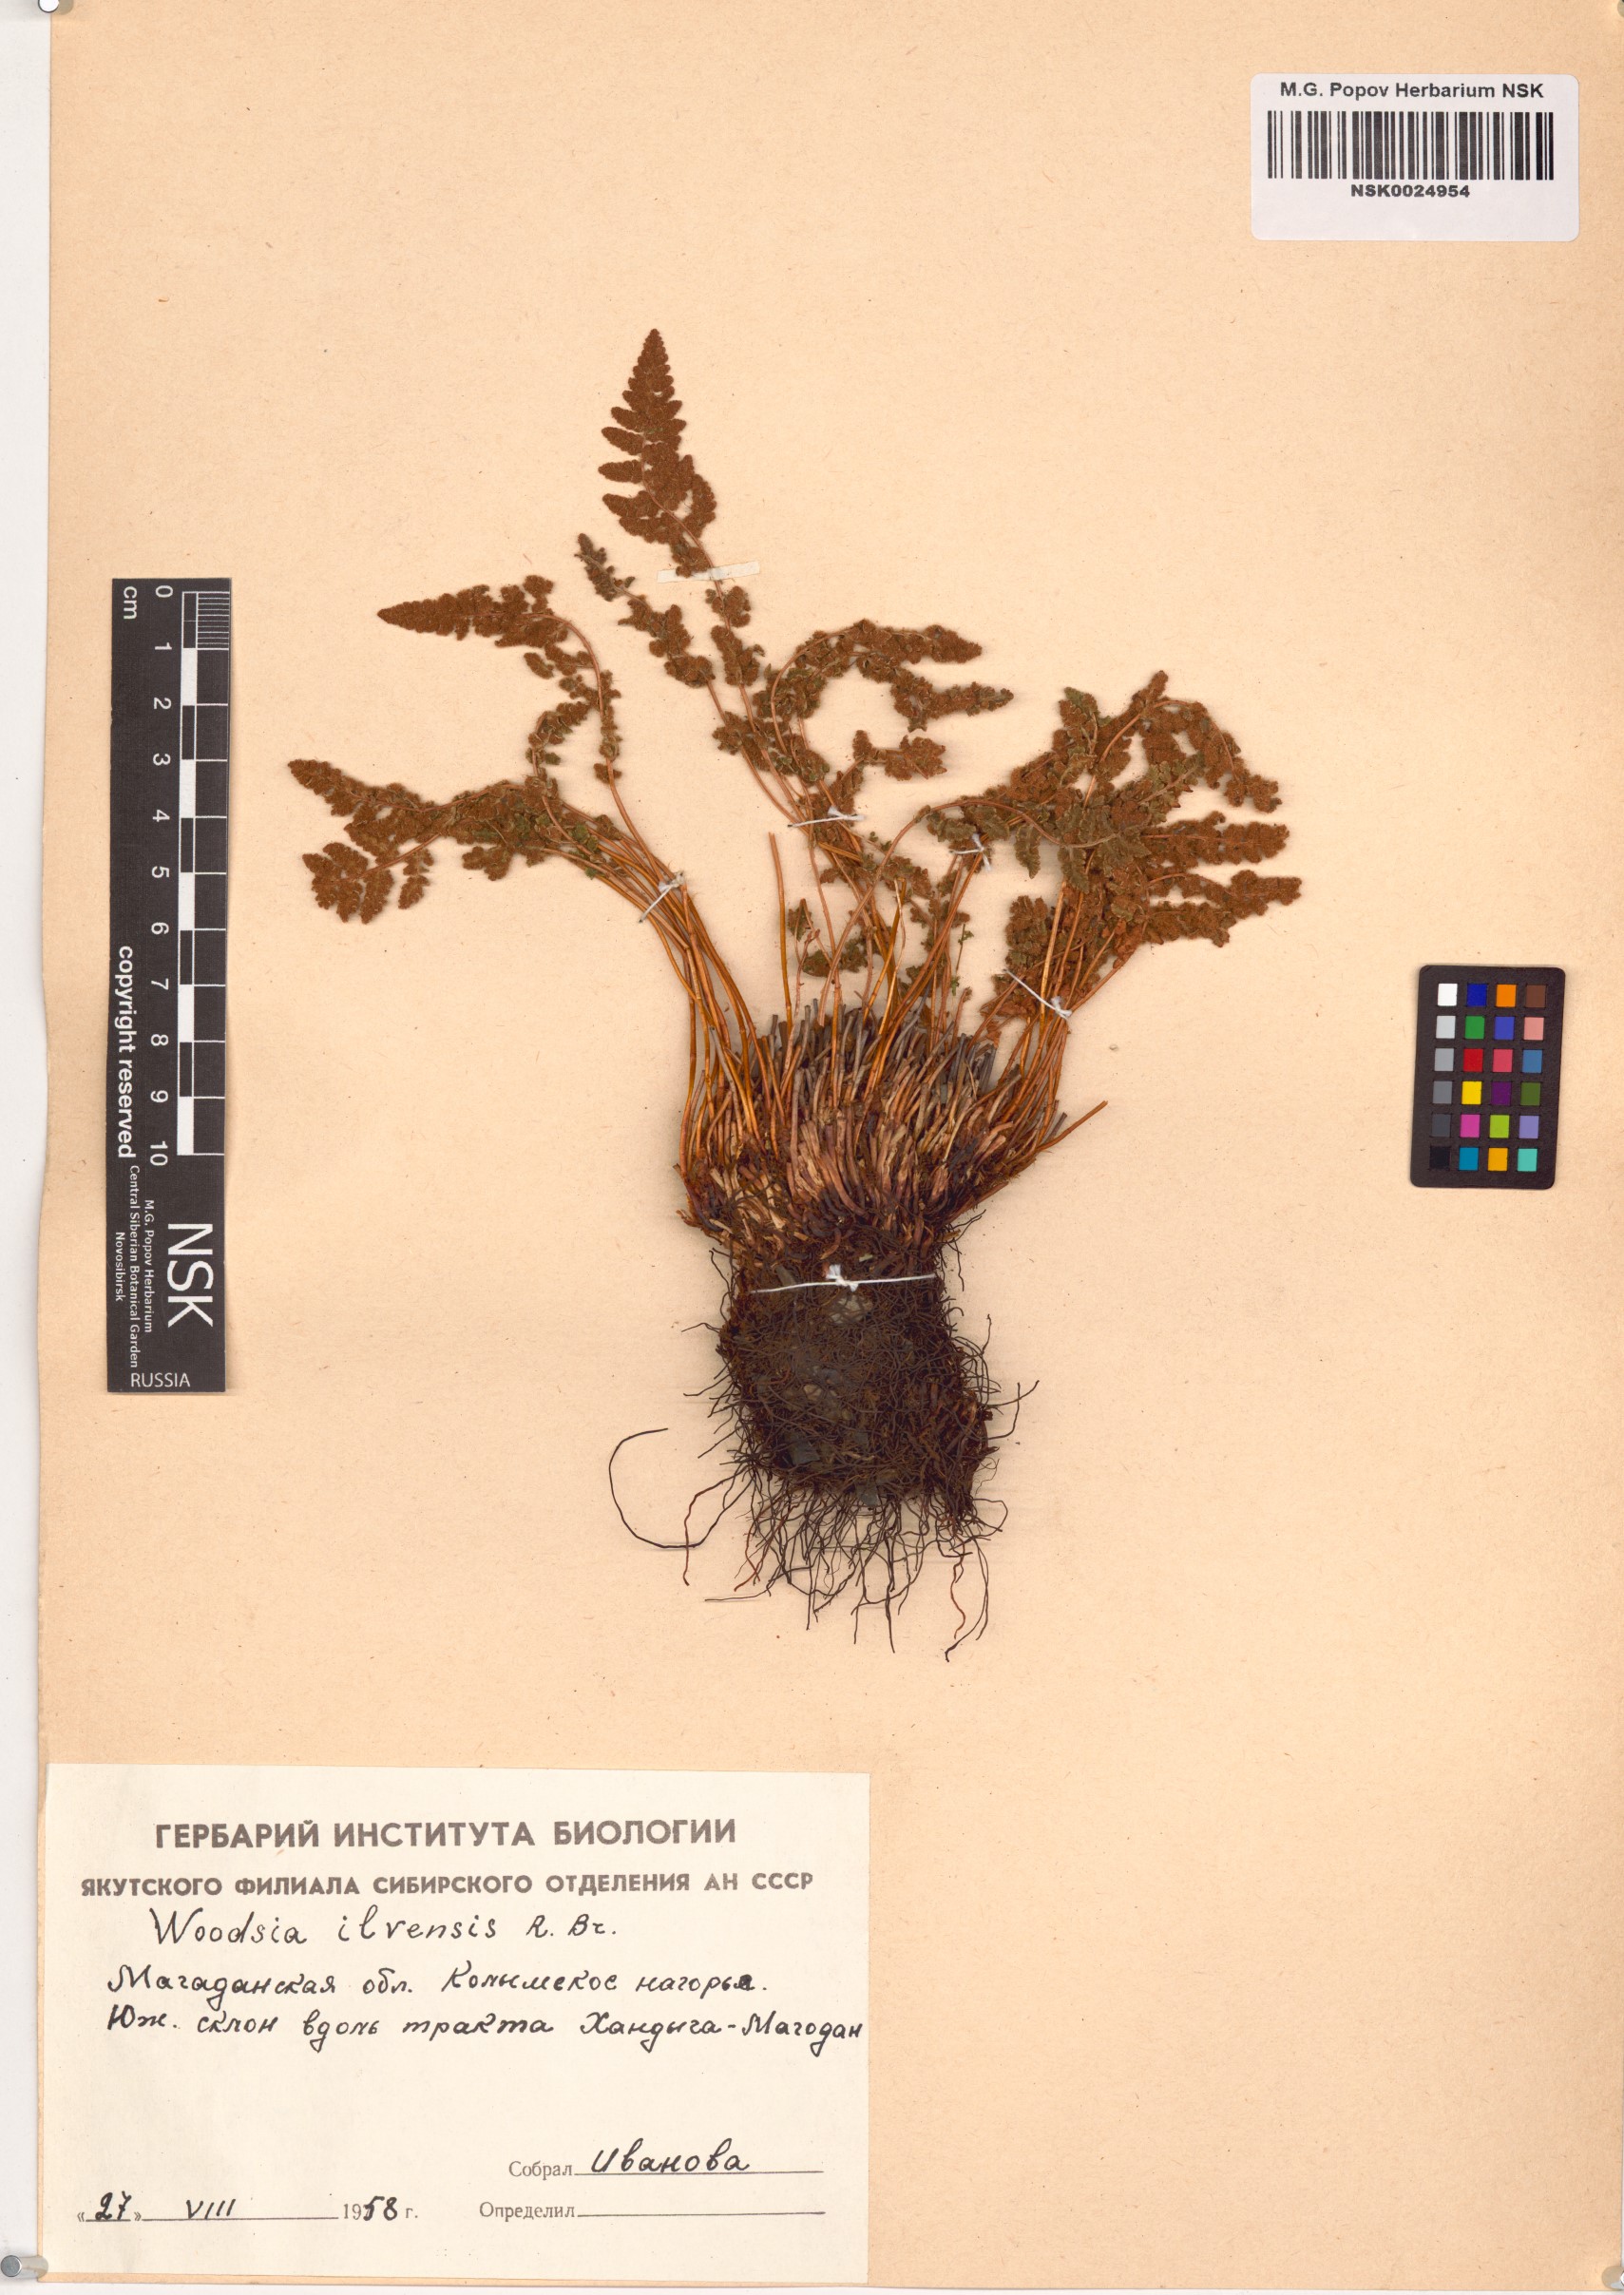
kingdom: Plantae
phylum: Tracheophyta
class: Polypodiopsida
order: Polypodiales
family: Woodsiaceae
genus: Woodsia
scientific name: Woodsia ilvensis
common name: Fragrant woodsia
